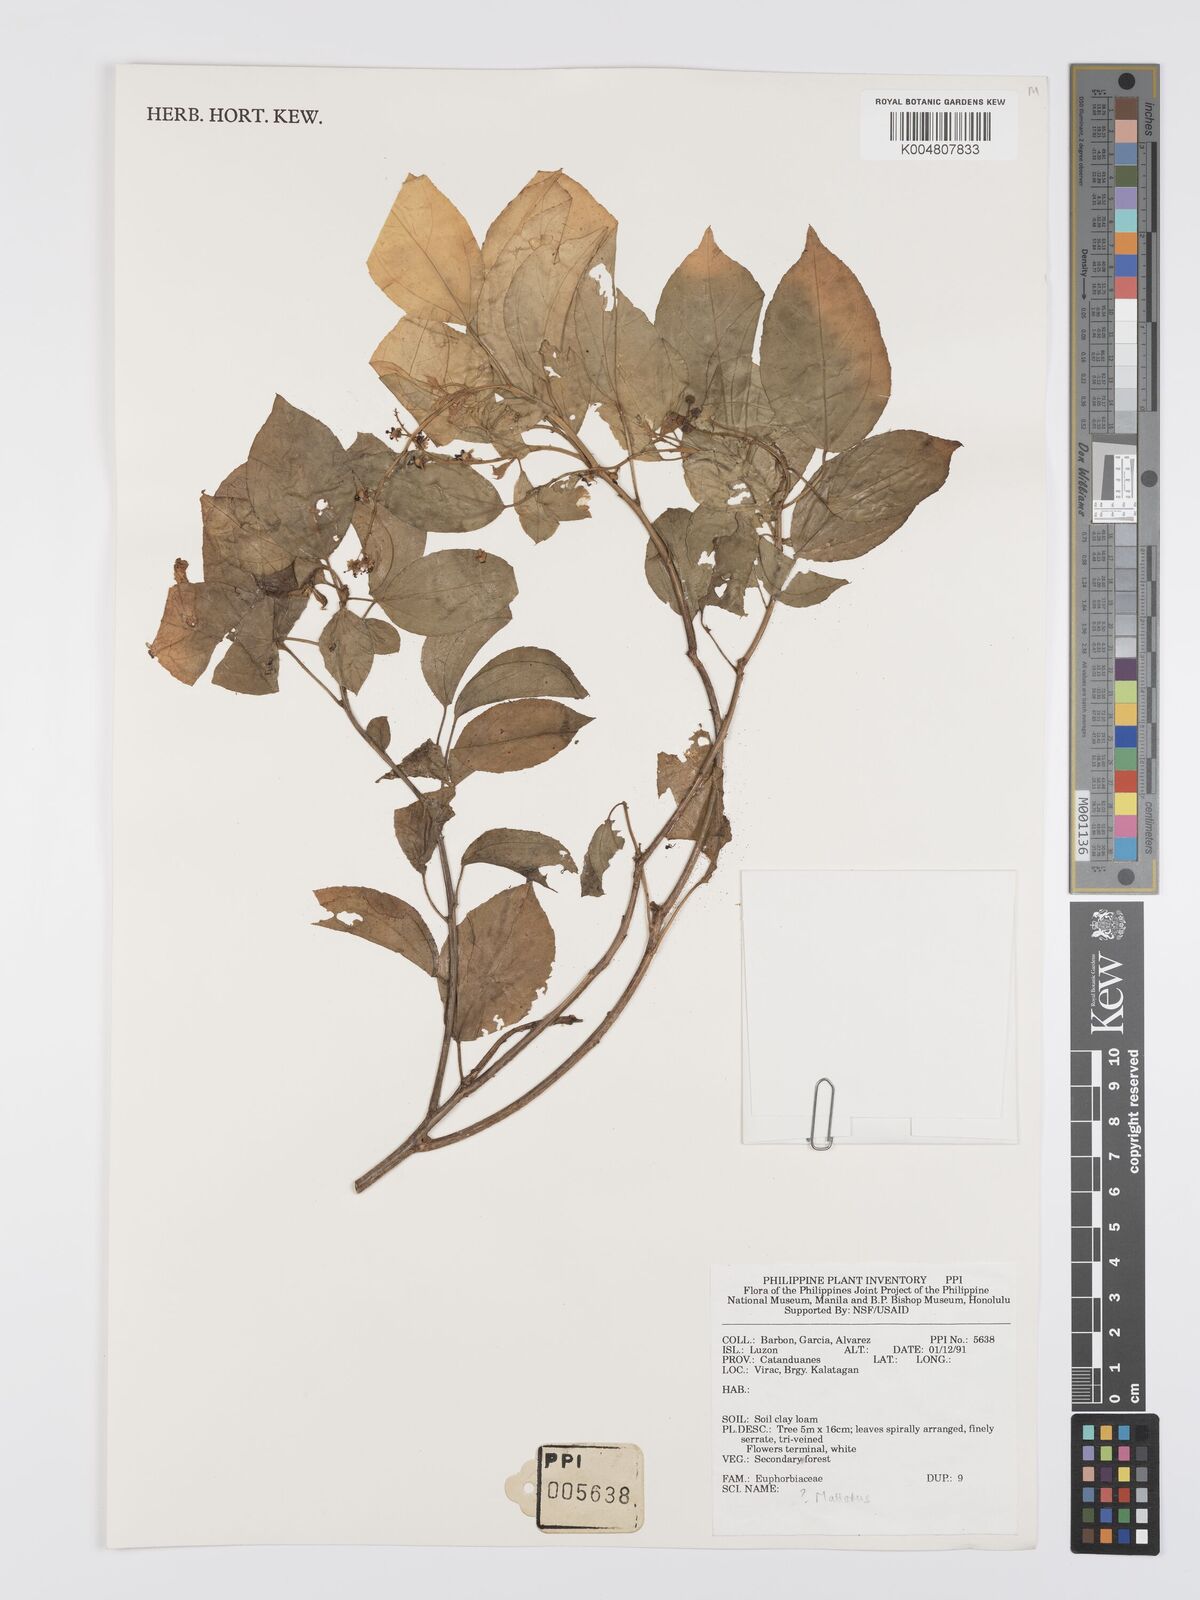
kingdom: Plantae
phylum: Tracheophyta
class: Magnoliopsida
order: Malpighiales
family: Euphorbiaceae
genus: Mallotus
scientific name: Mallotus
